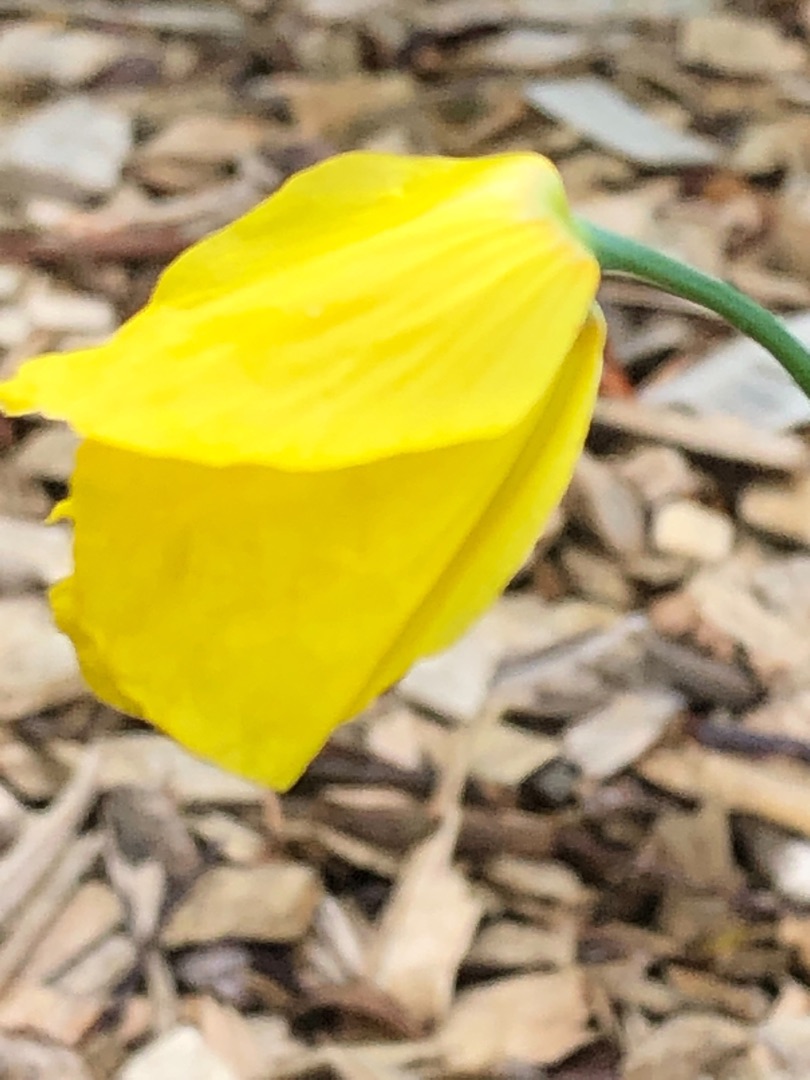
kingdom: Plantae
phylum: Tracheophyta
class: Magnoliopsida
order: Ranunculales
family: Papaveraceae
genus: Papaver
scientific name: Papaver cambricum
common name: Skov-valmue
